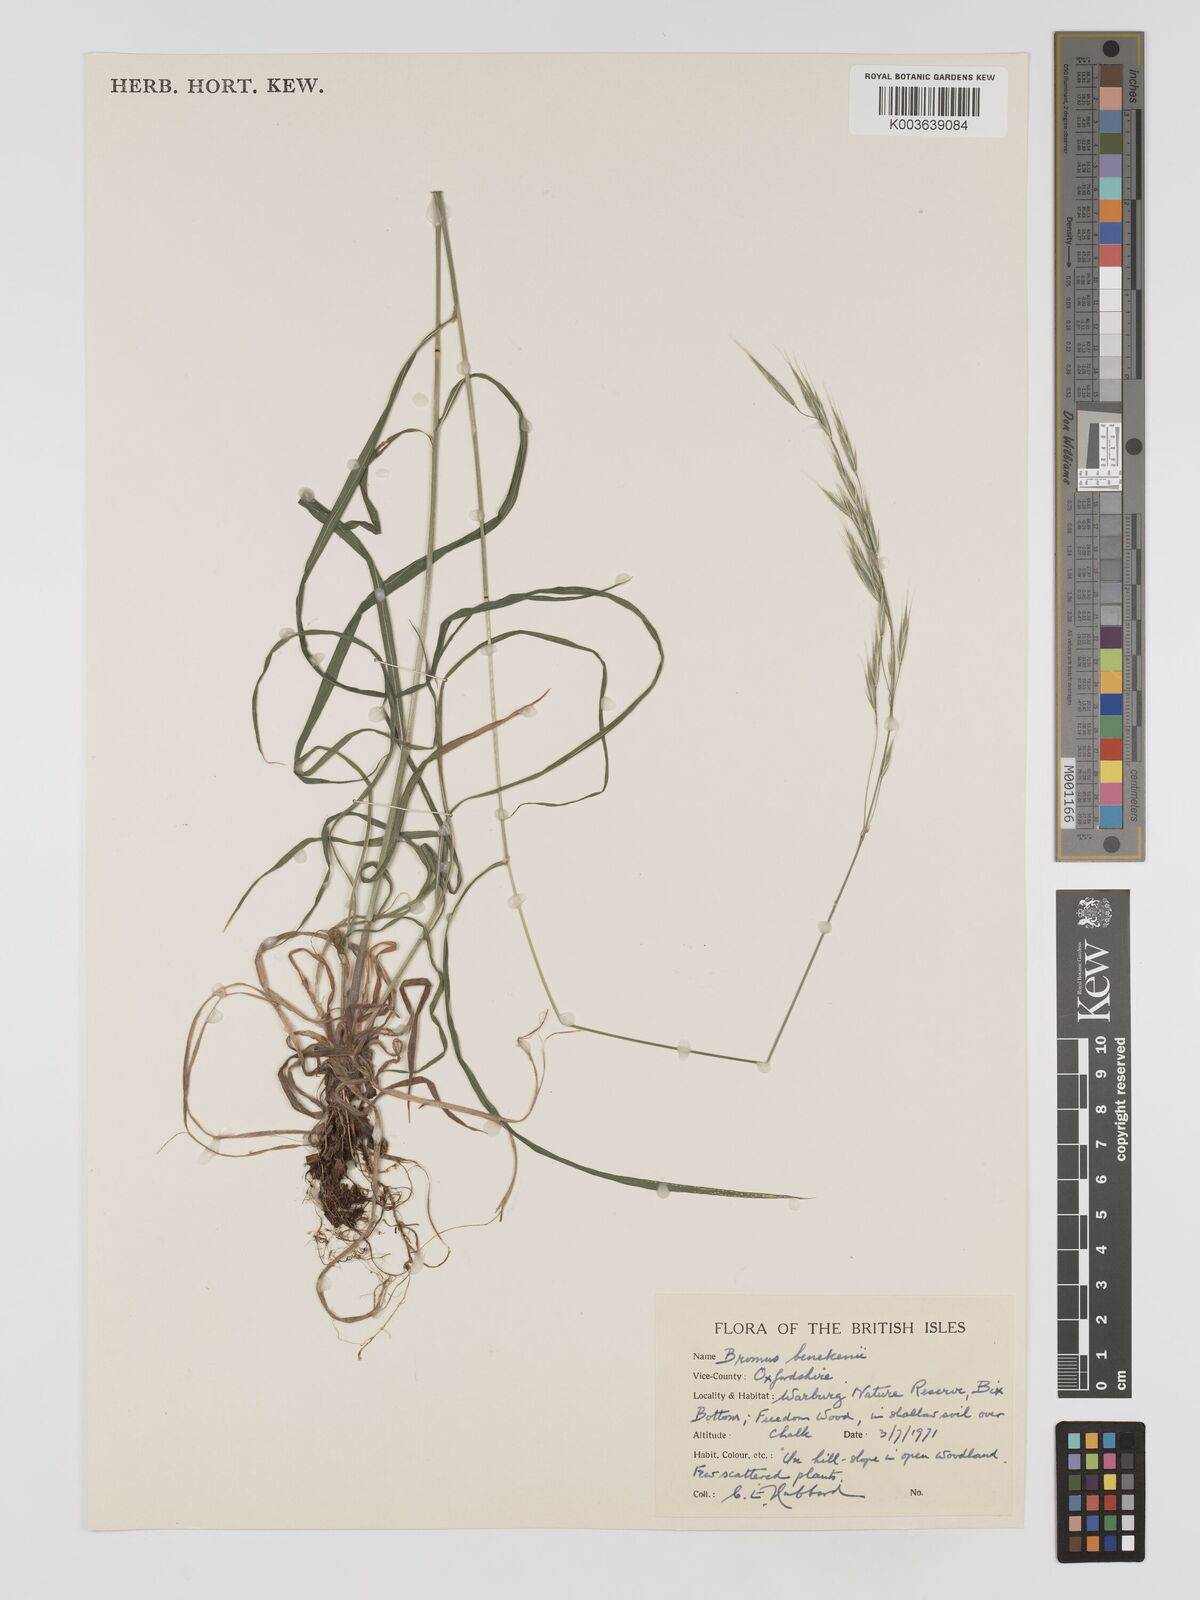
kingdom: Plantae
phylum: Tracheophyta
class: Liliopsida
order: Poales
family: Poaceae
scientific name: Poaceae
